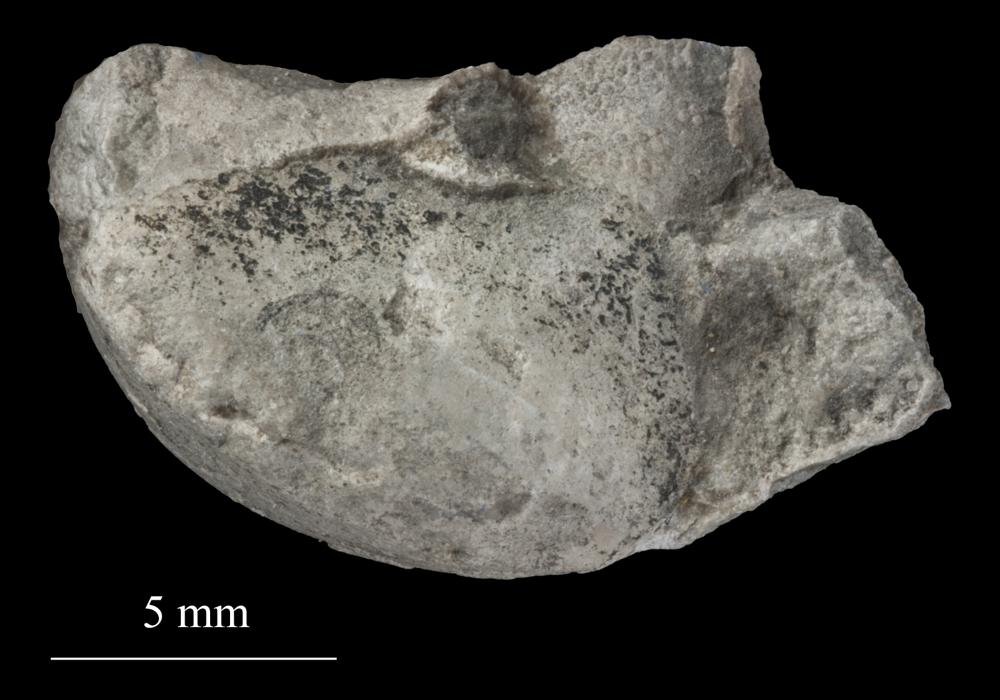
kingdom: Animalia
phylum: Mollusca
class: Gastropoda
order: Trochida
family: Trochidae
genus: Trochus
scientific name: Trochus ellipticus
